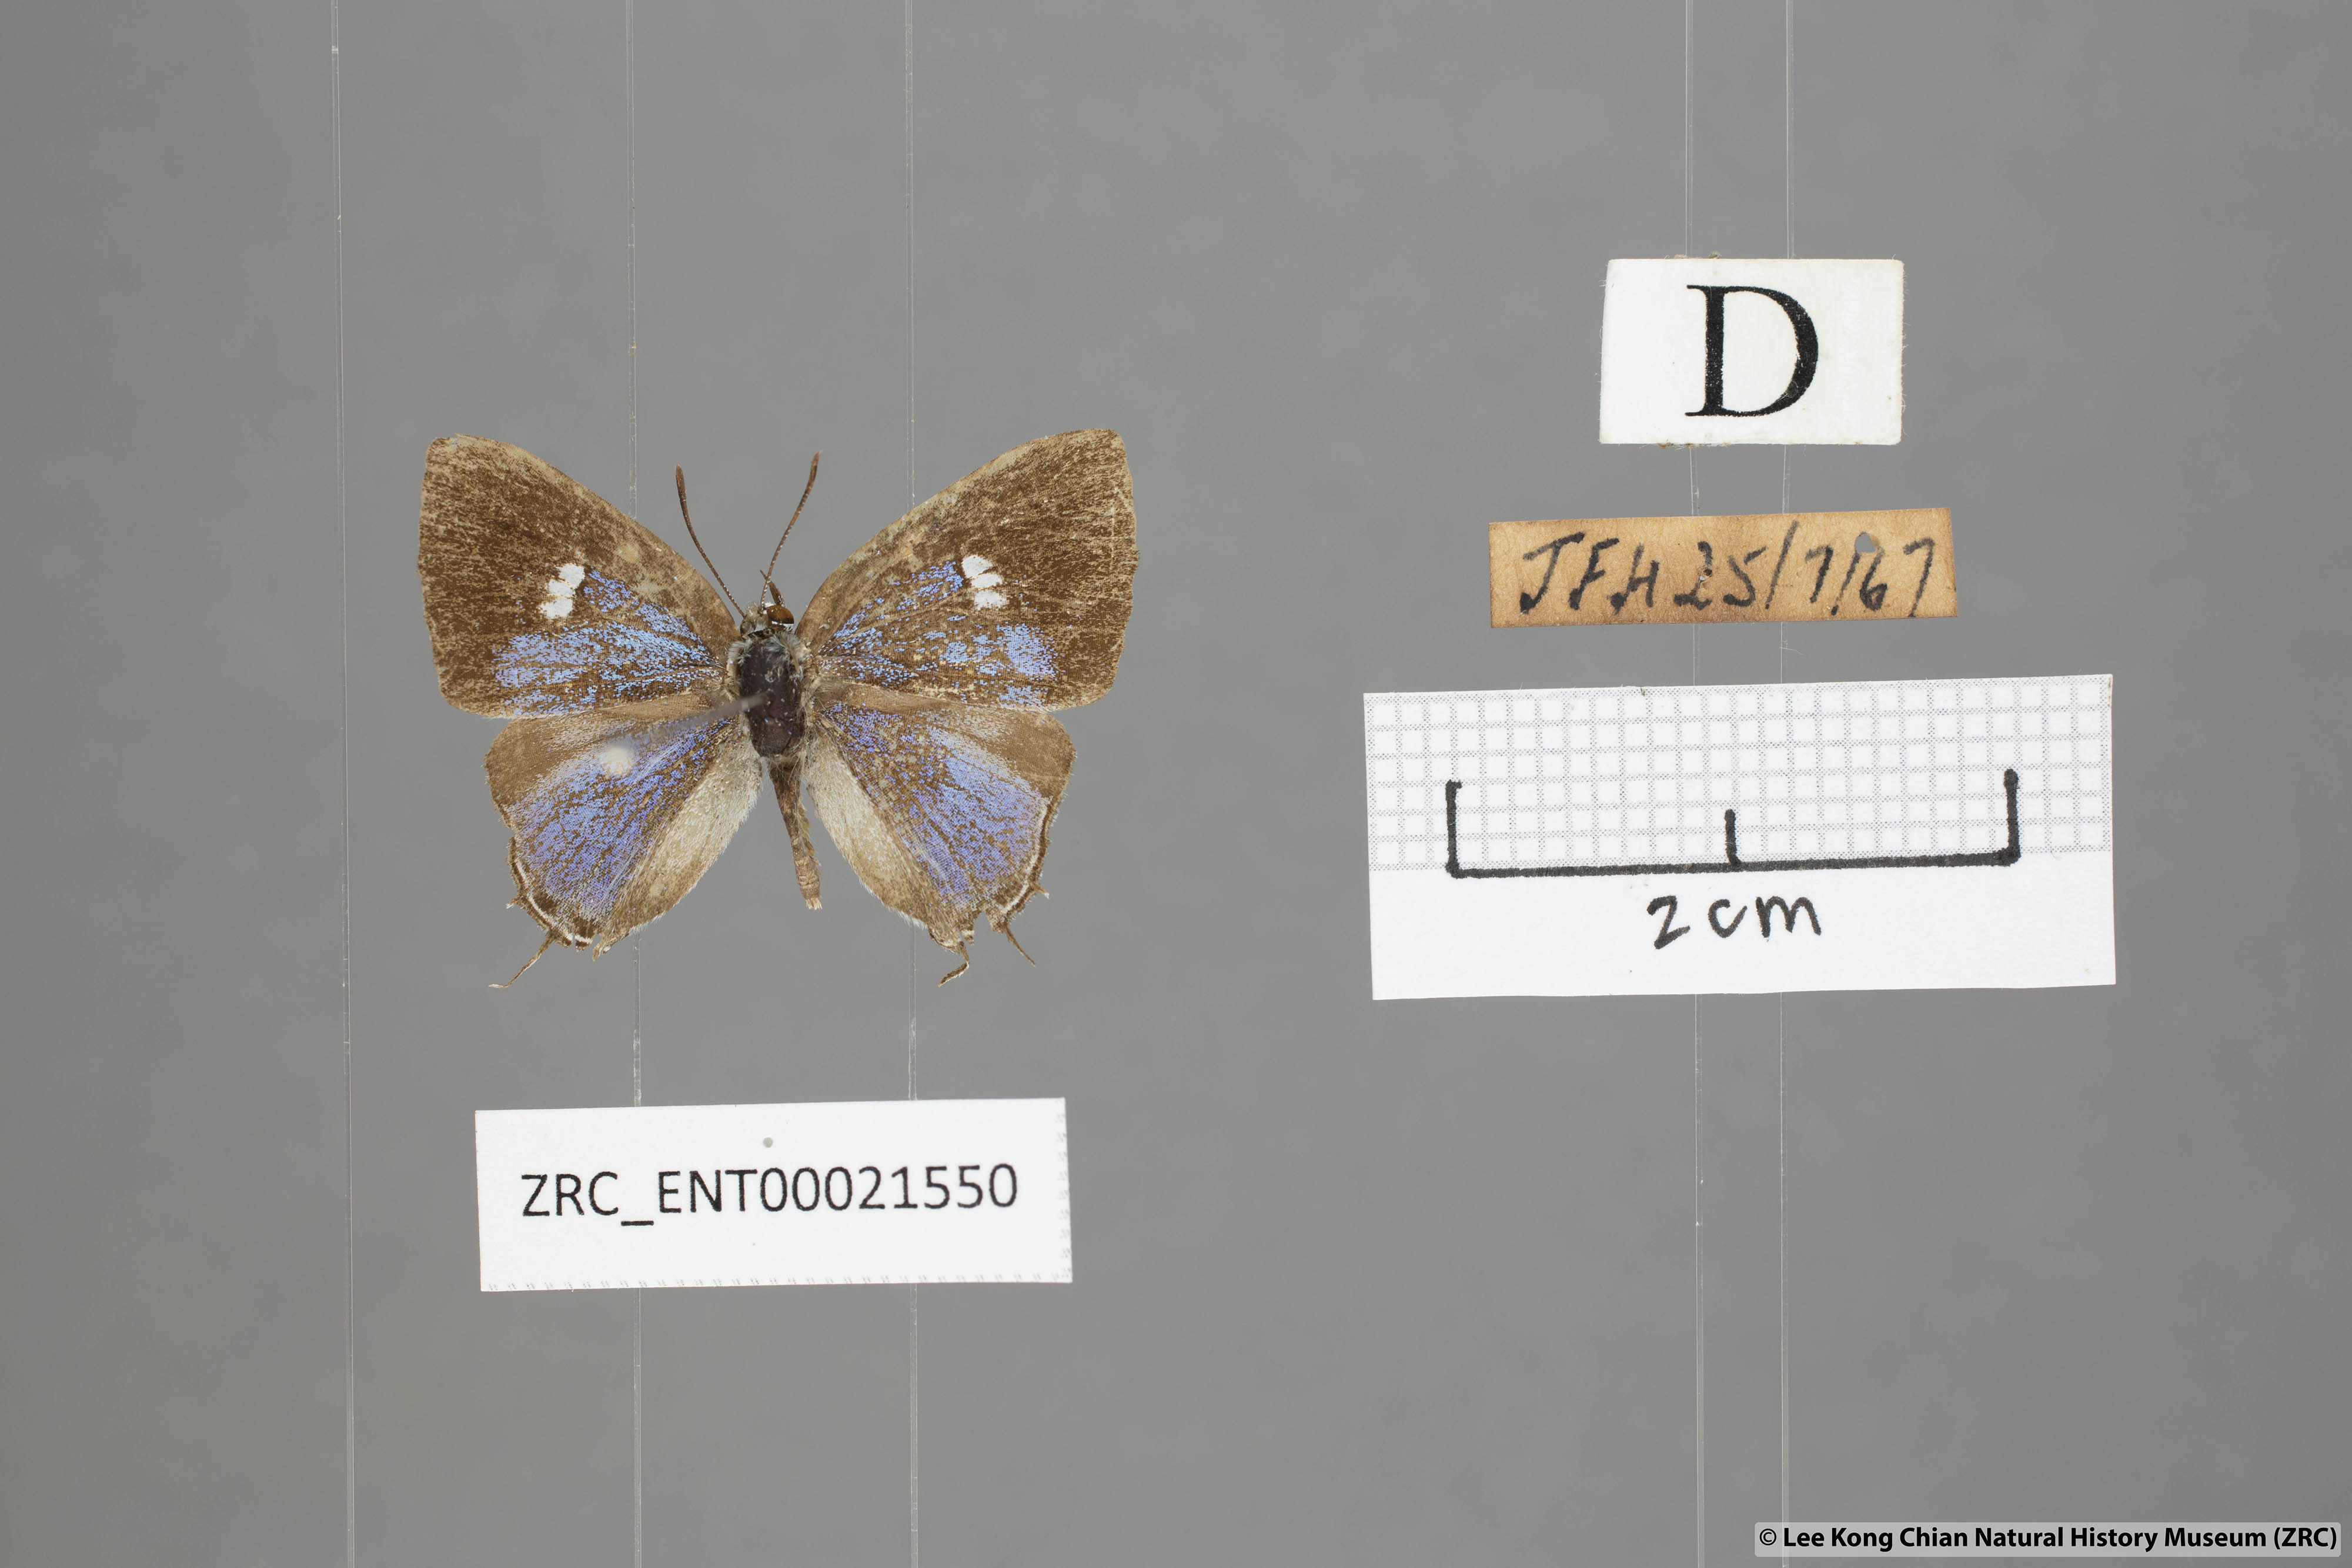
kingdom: Animalia
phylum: Arthropoda
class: Insecta
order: Lepidoptera
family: Lycaenidae
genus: Horaga
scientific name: Horaga syrinx
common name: Ambon onyx
